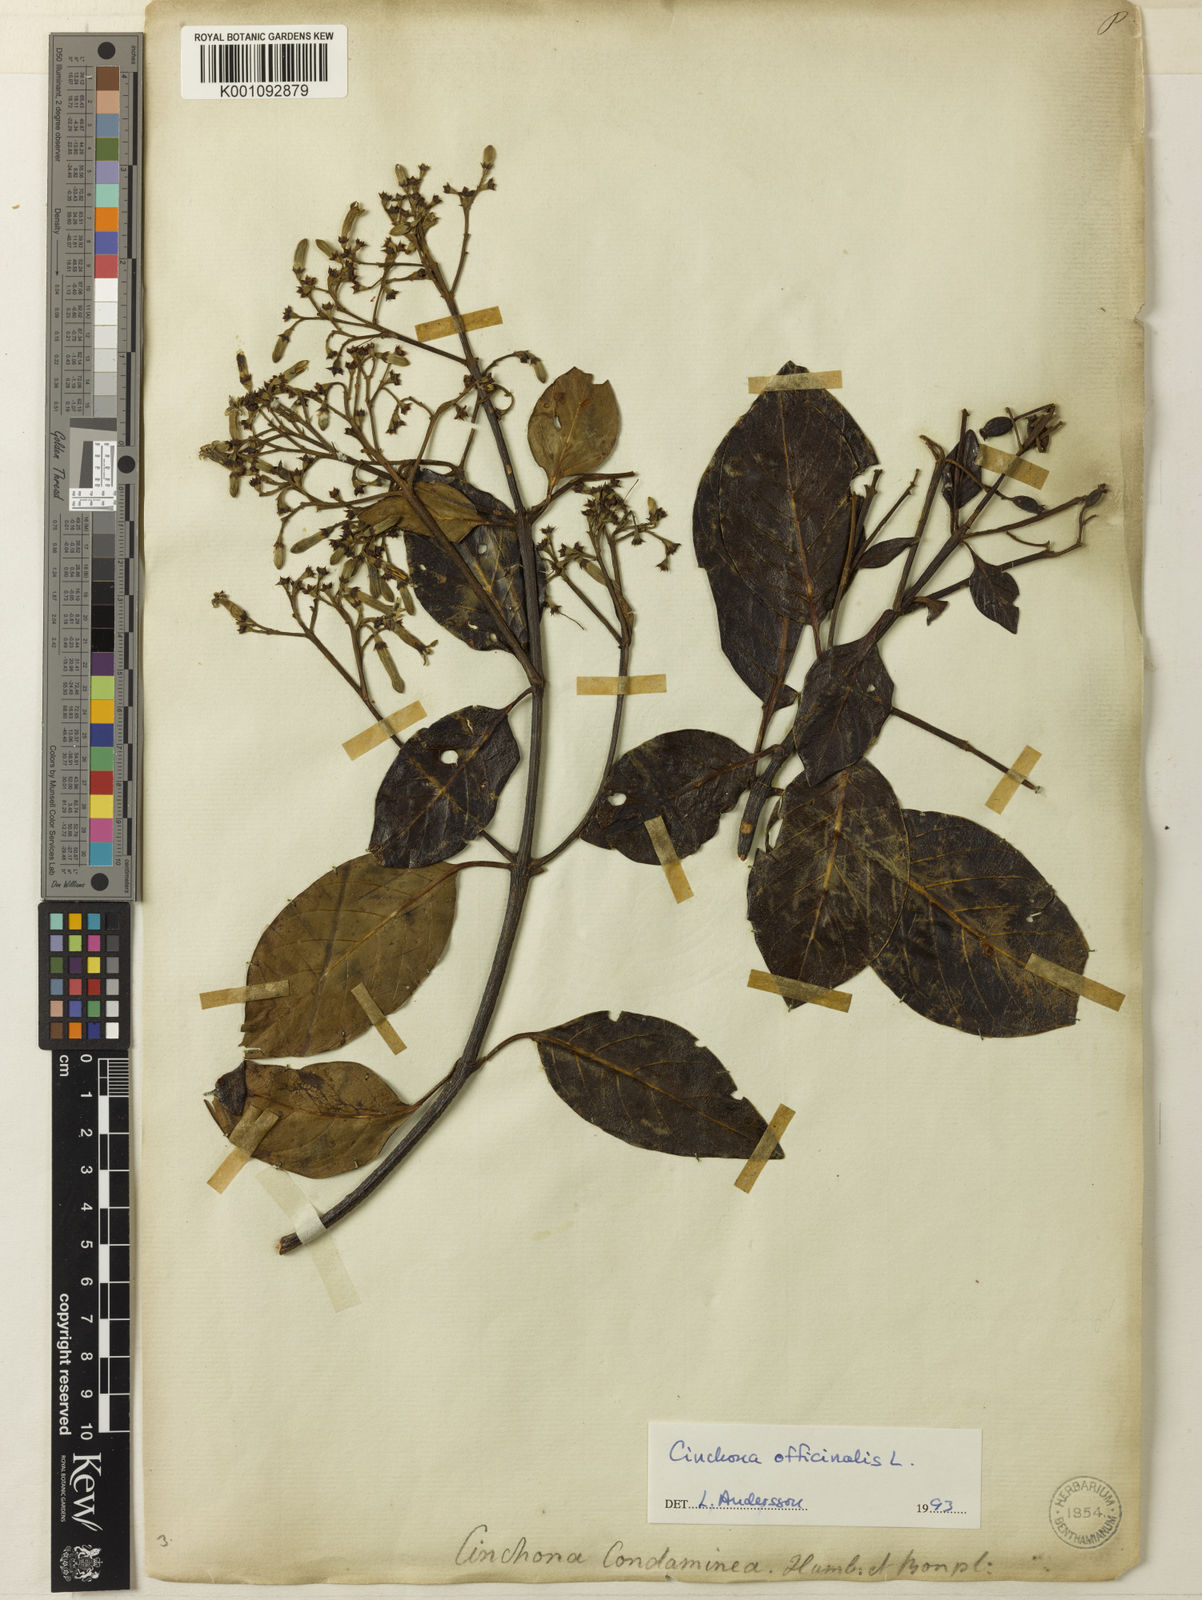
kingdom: Plantae
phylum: Tracheophyta
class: Magnoliopsida
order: Gentianales
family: Rubiaceae
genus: Cinchona
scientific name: Cinchona officinalis
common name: Lojabark
